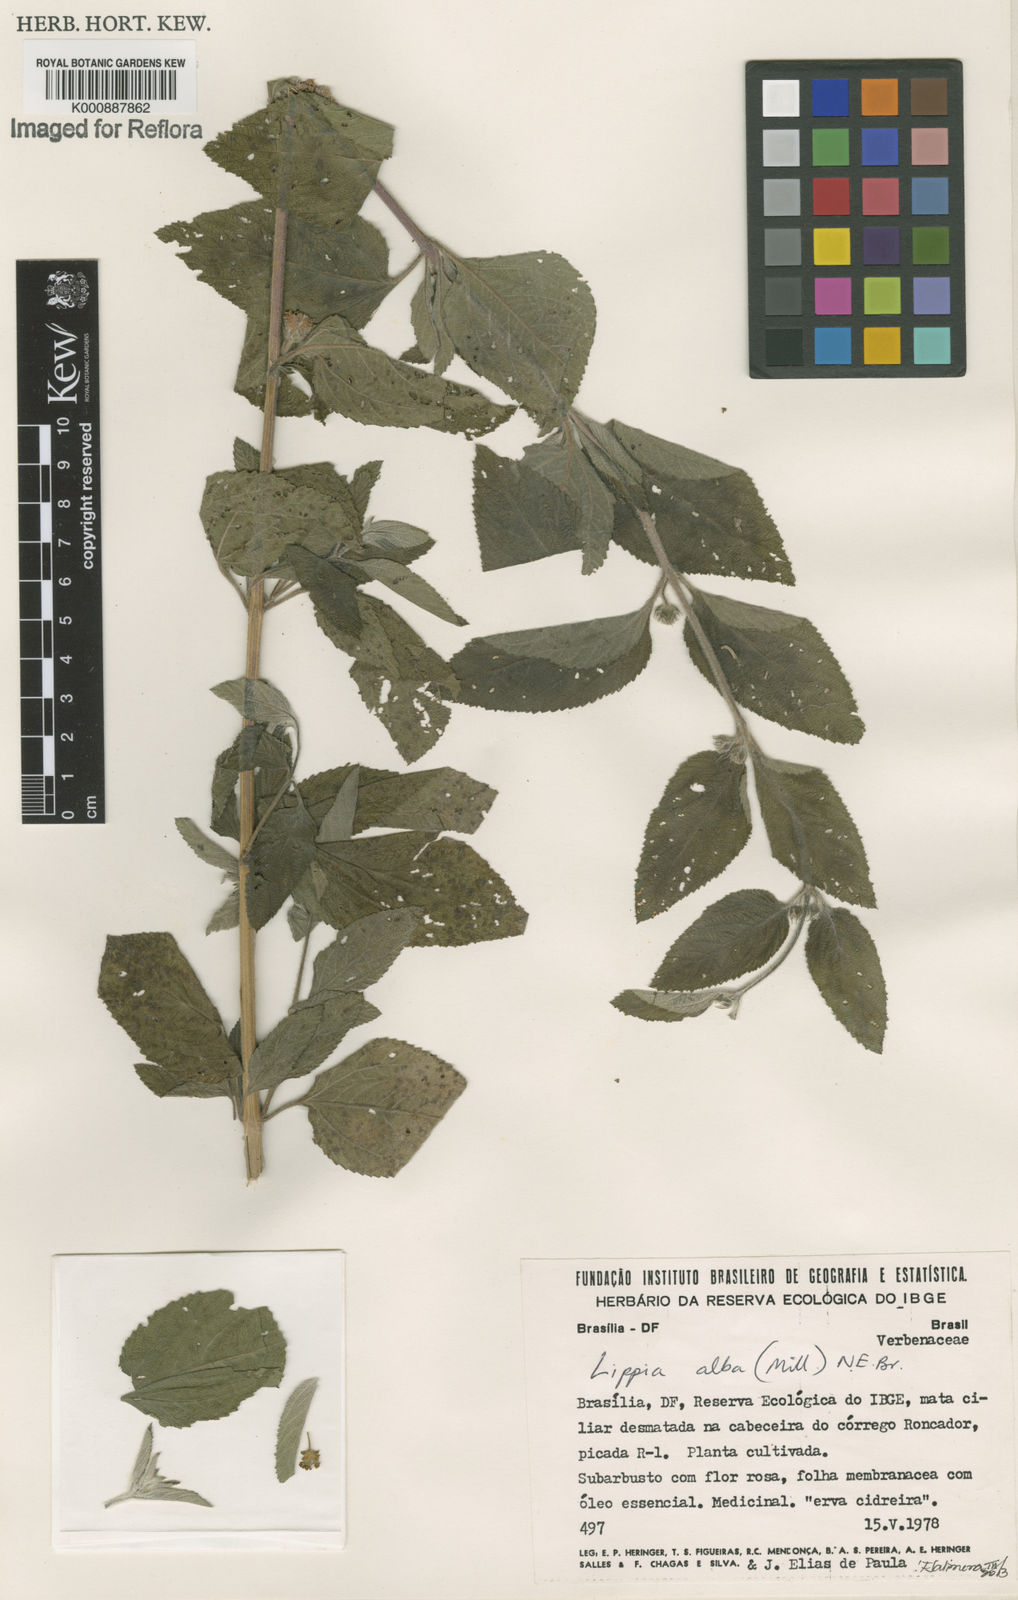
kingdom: Plantae
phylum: Tracheophyta
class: Magnoliopsida
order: Lamiales
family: Verbenaceae
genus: Lippia
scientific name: Lippia
